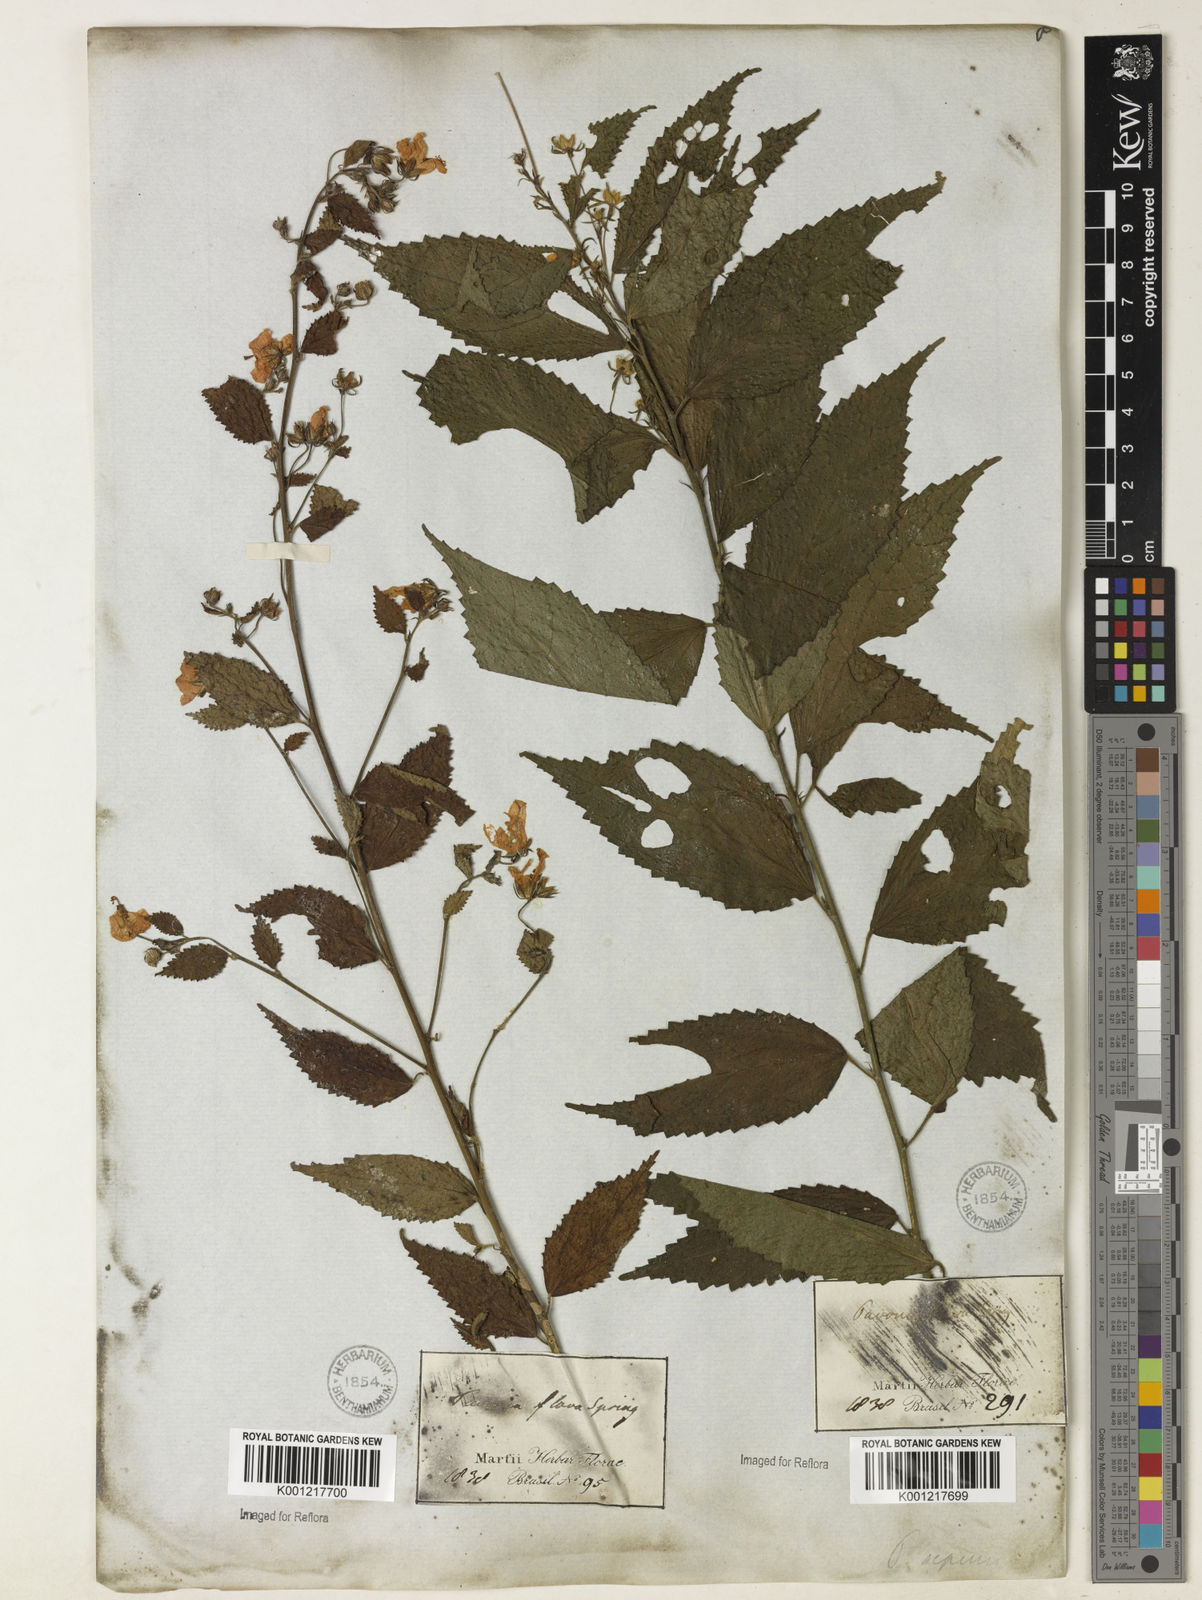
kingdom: Plantae
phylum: Tracheophyta
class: Magnoliopsida
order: Malvales
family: Malvaceae
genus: Pavonia
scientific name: Pavonia sepium
